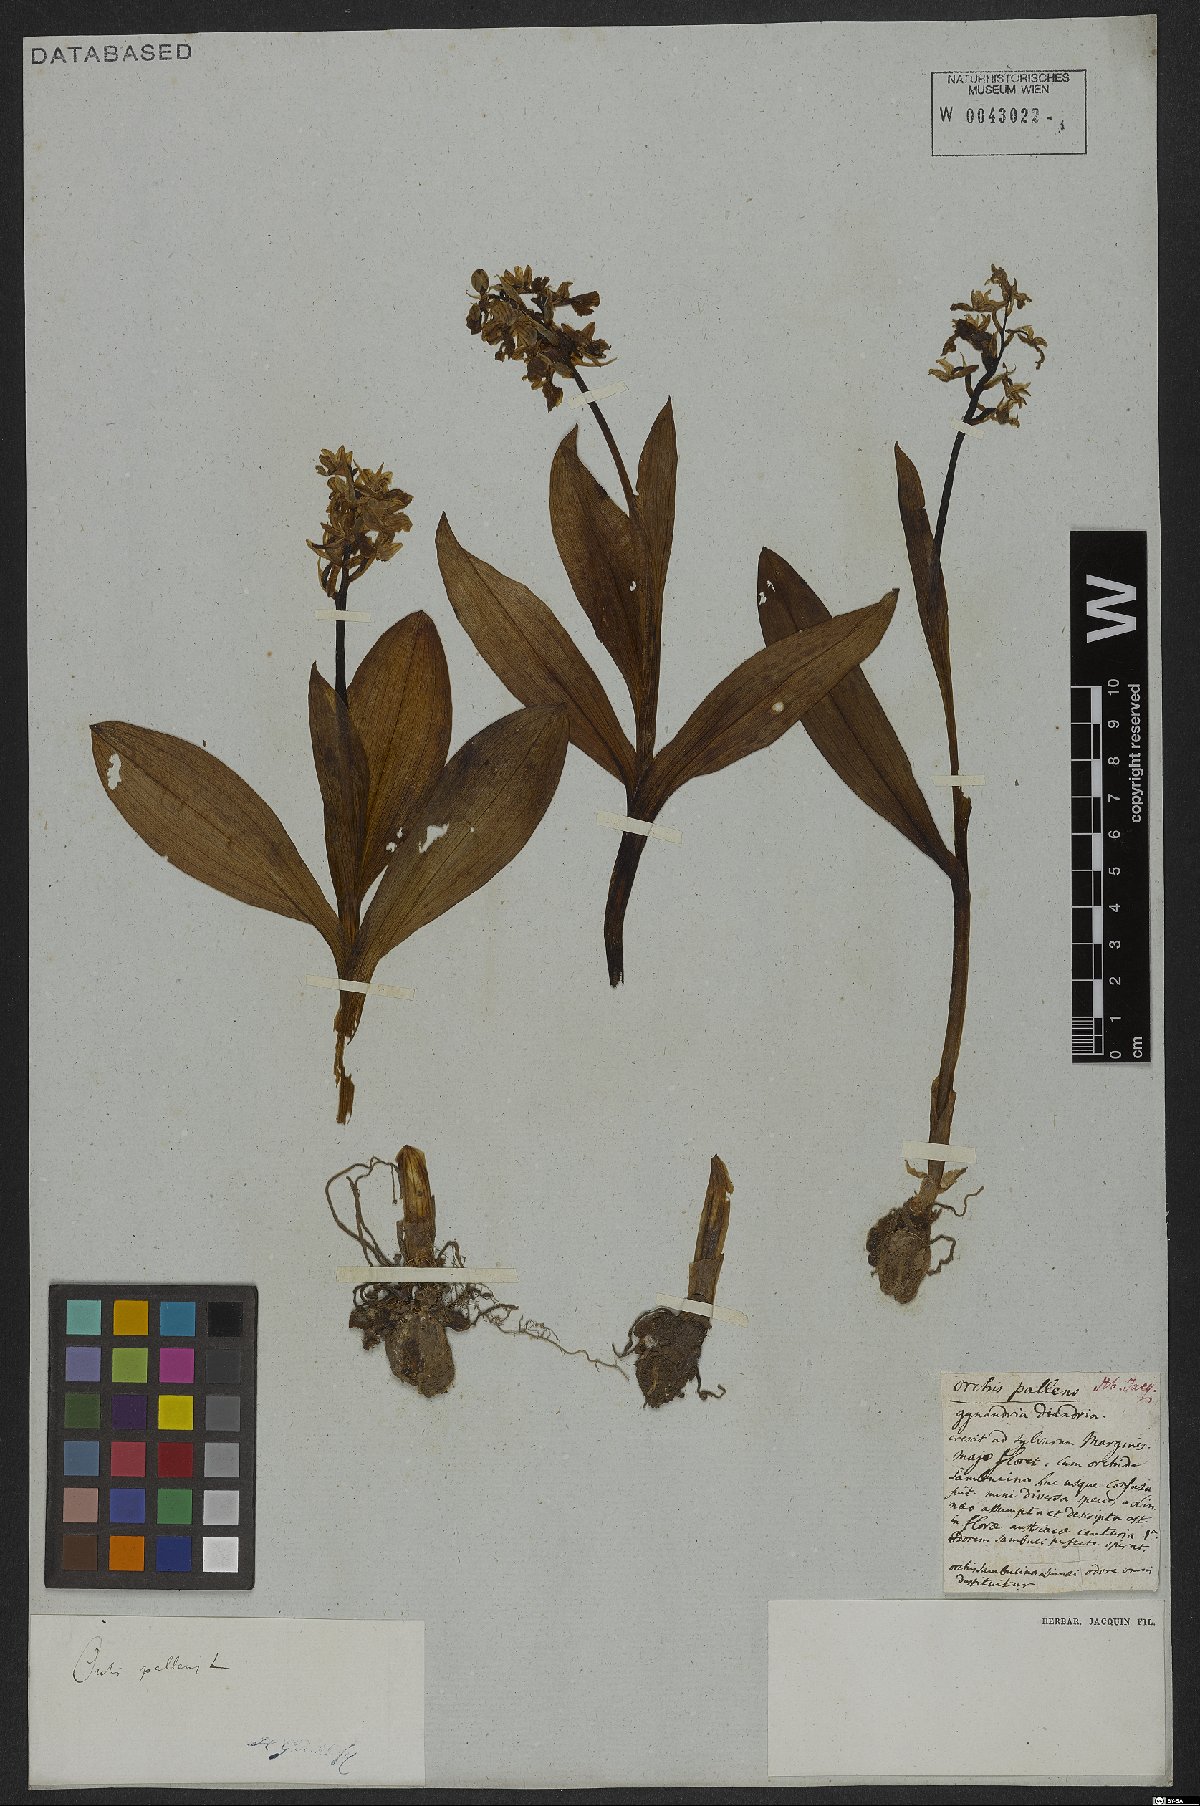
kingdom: Plantae
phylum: Tracheophyta
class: Liliopsida
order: Asparagales
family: Orchidaceae
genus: Orchis
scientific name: Orchis pallens
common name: Pale-flowered orchid
